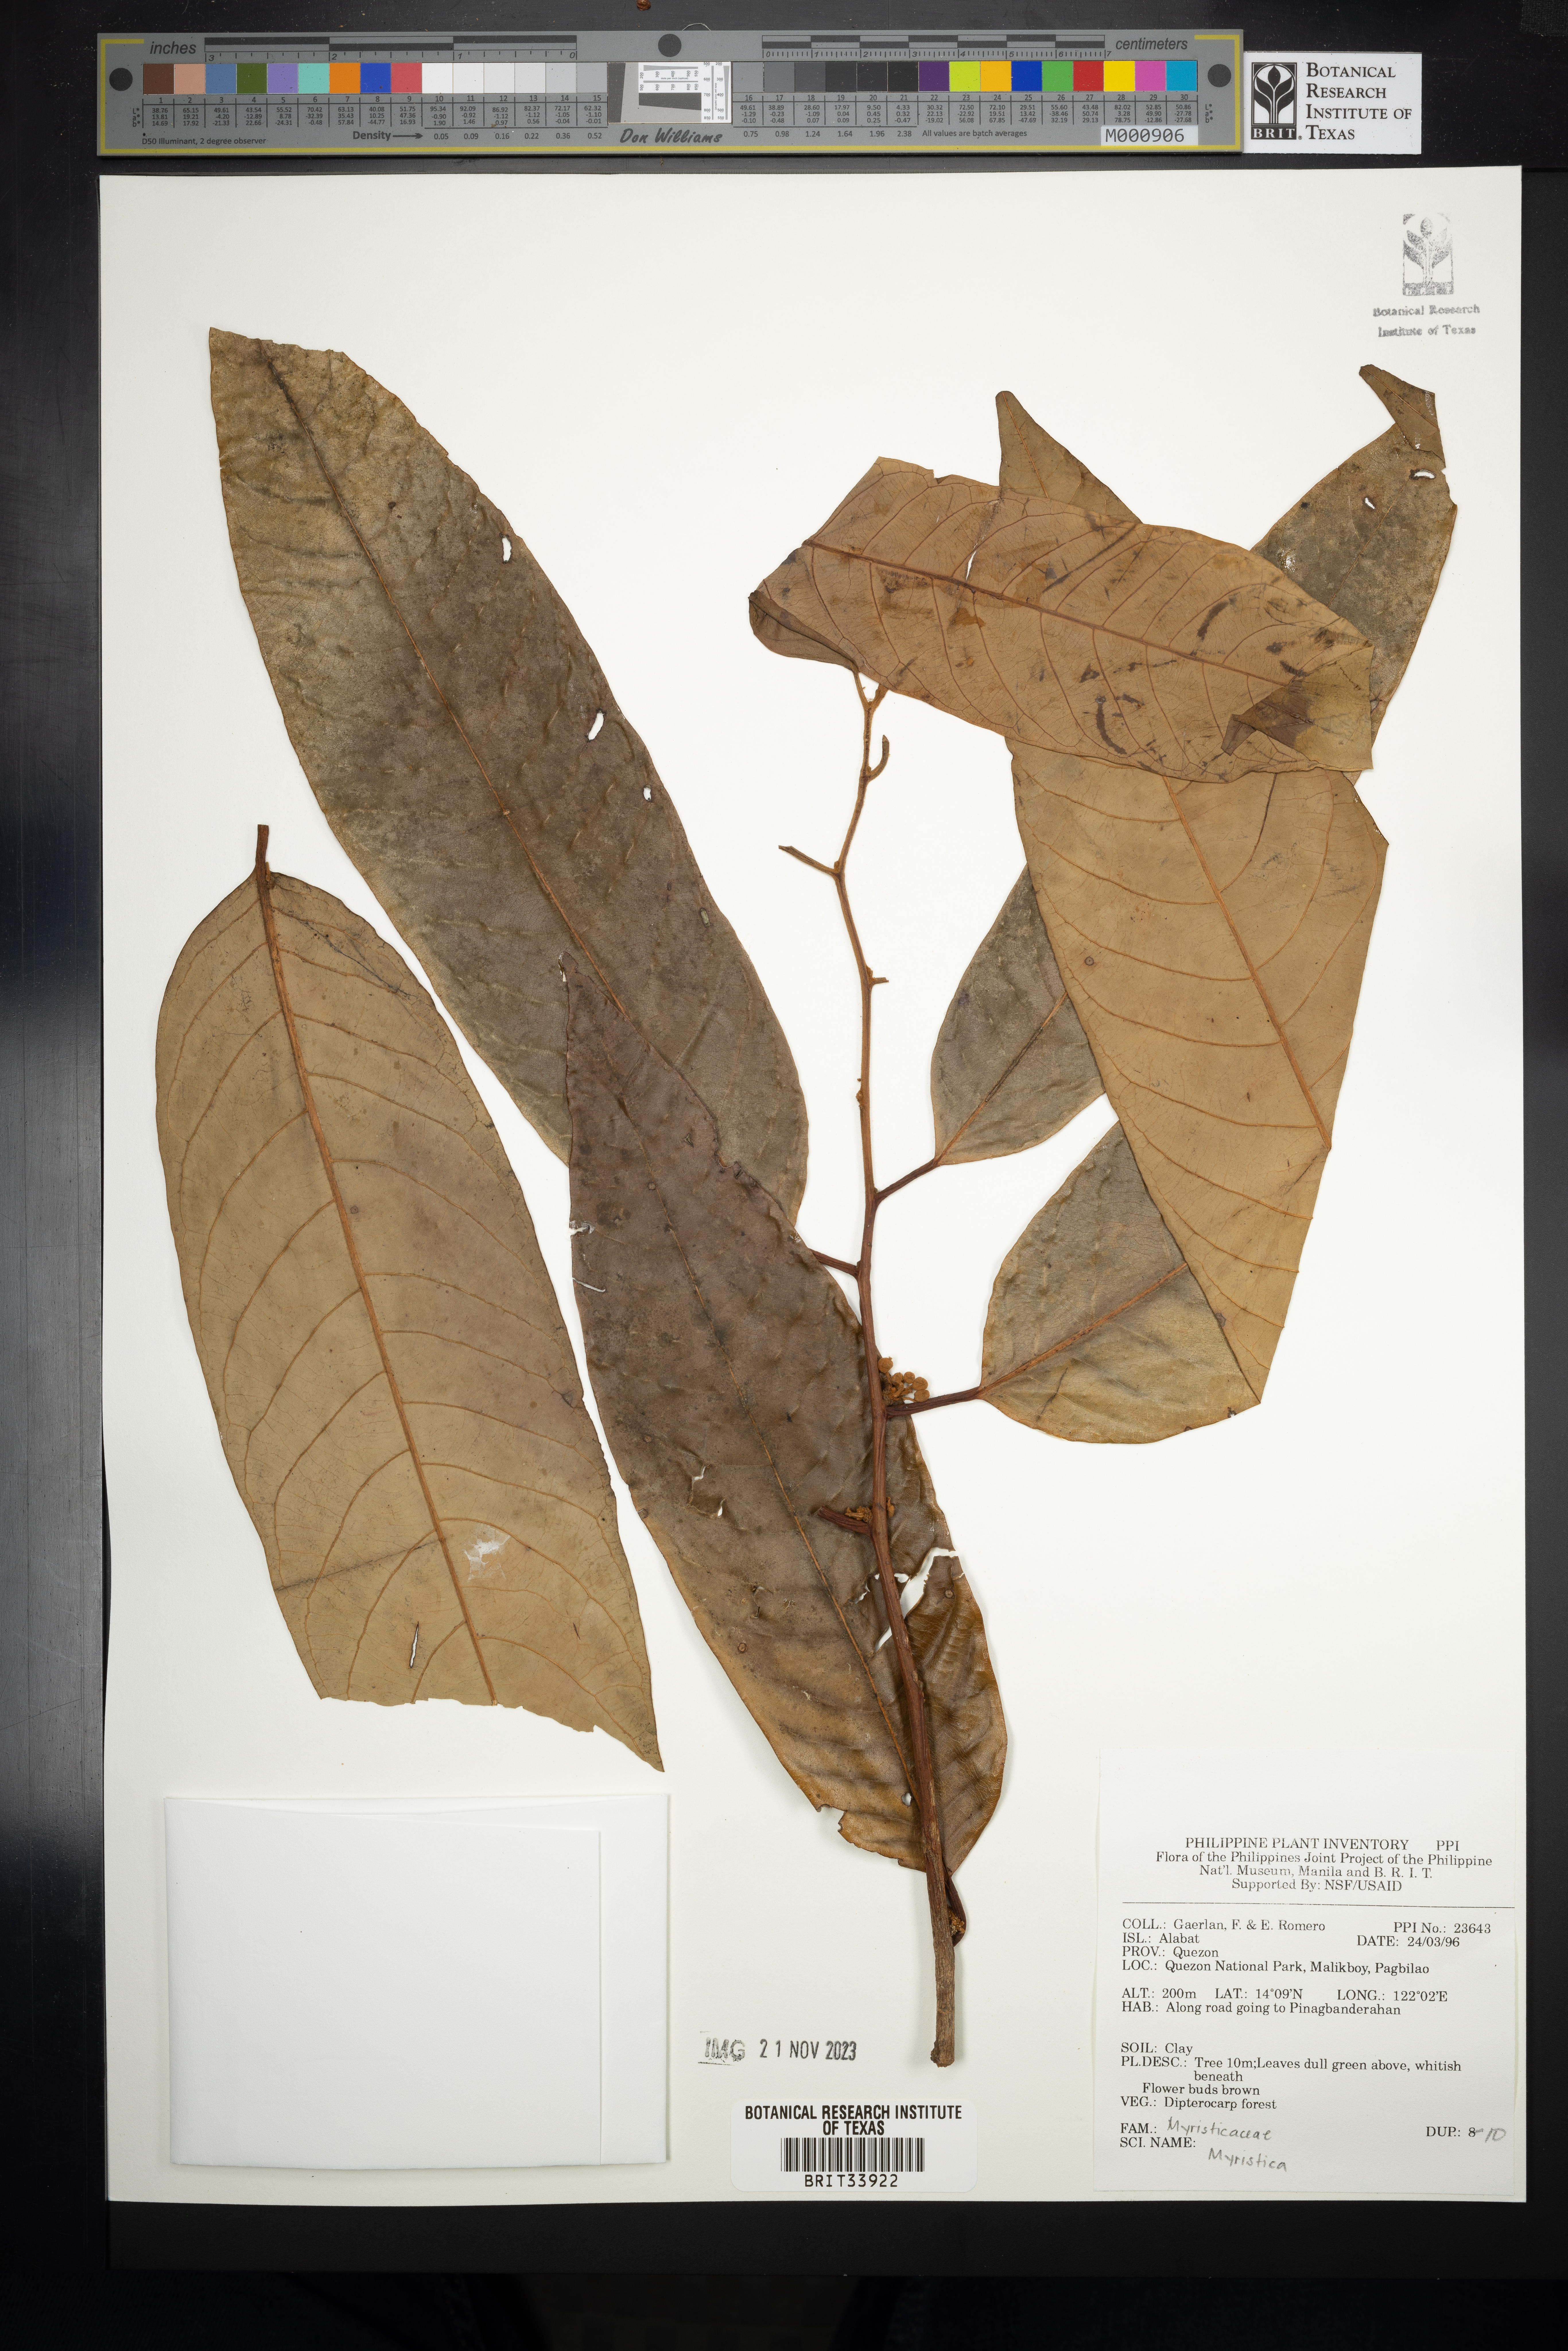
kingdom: Plantae
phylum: Tracheophyta
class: Magnoliopsida
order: Magnoliales
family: Myristicaceae
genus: Myristica
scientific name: Myristica
